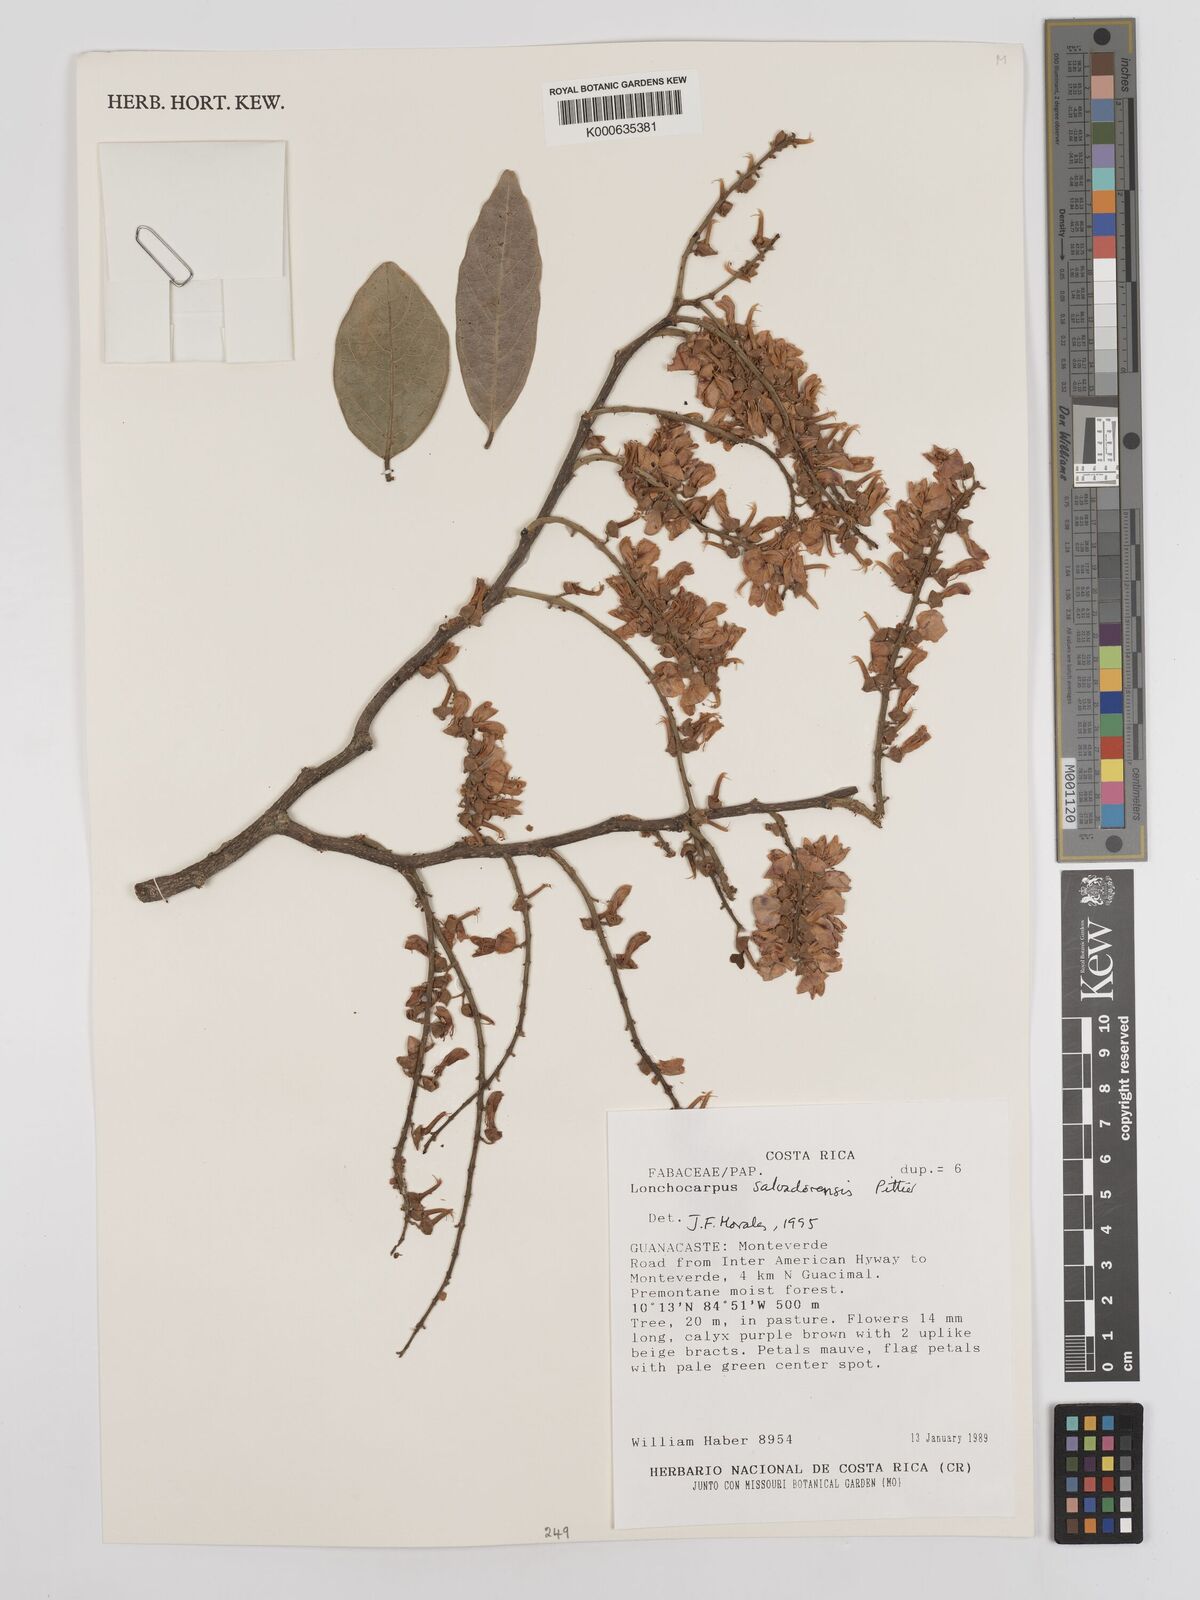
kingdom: Plantae
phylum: Tracheophyta
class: Magnoliopsida
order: Fabales
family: Fabaceae
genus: Lonchocarpus
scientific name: Lonchocarpus salvadorensis
